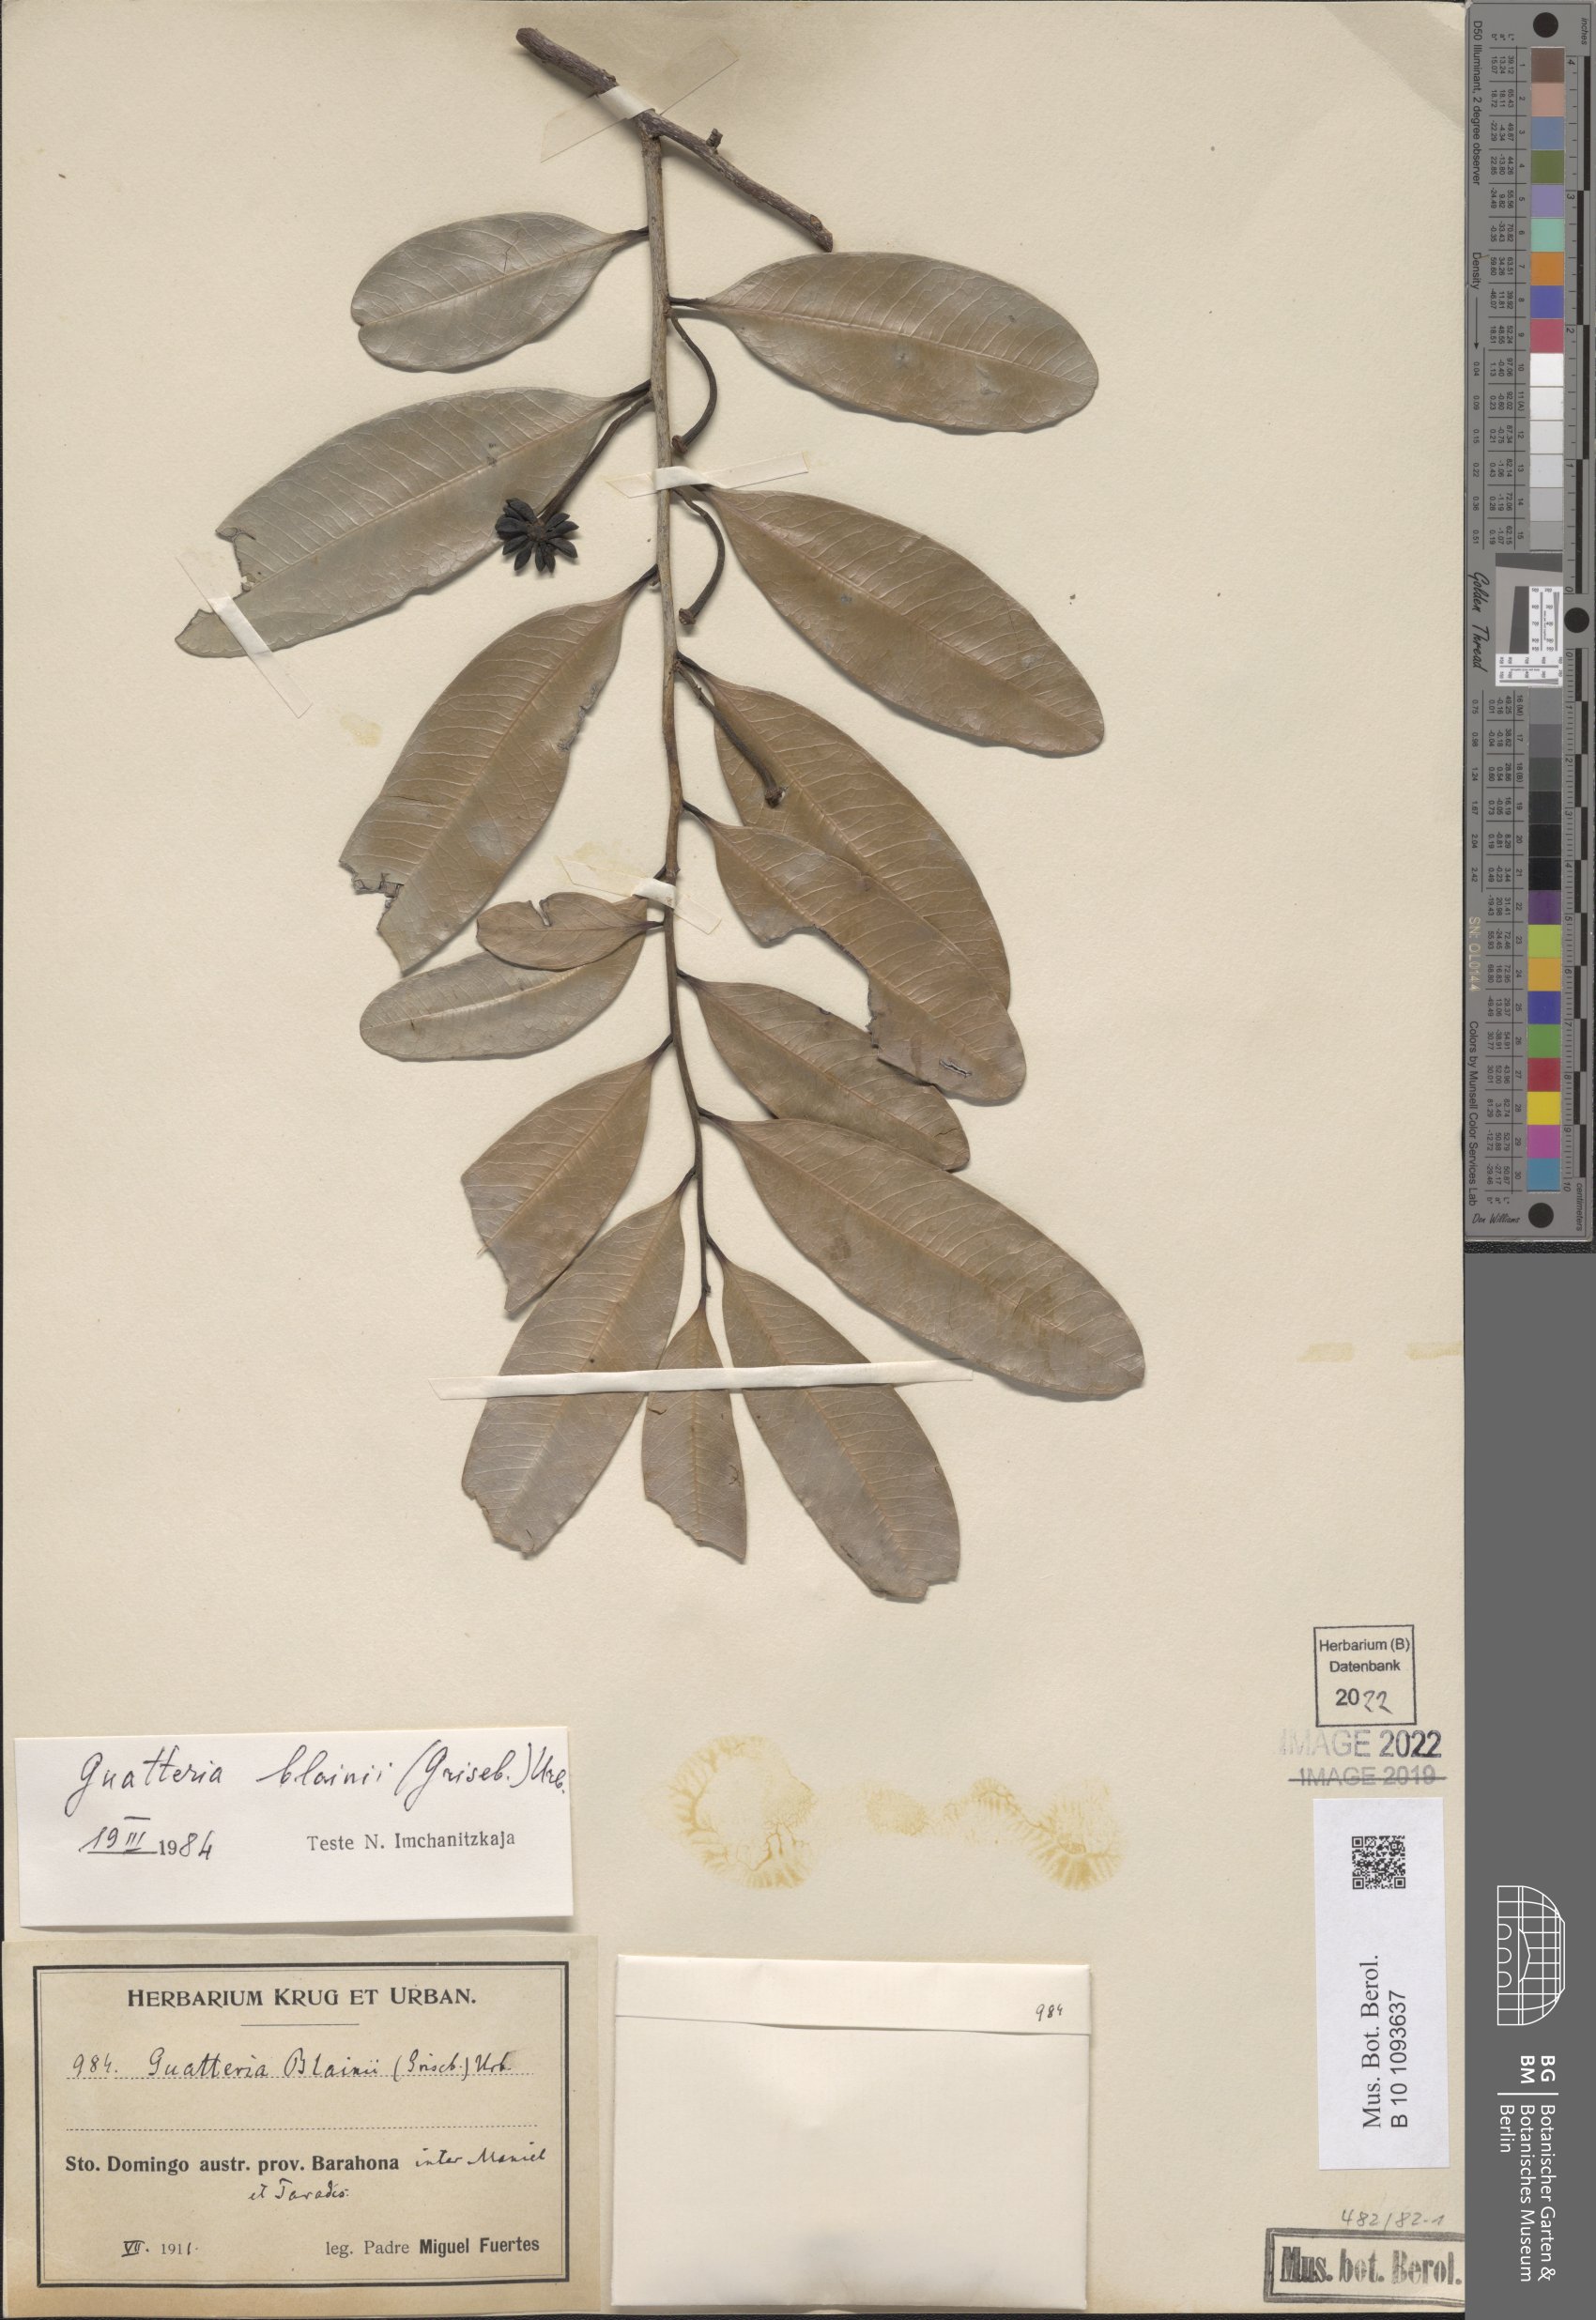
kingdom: Plantae
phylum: Tracheophyta
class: Magnoliopsida
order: Magnoliales
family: Annonaceae
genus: Guatteria
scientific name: Guatteria blainii
